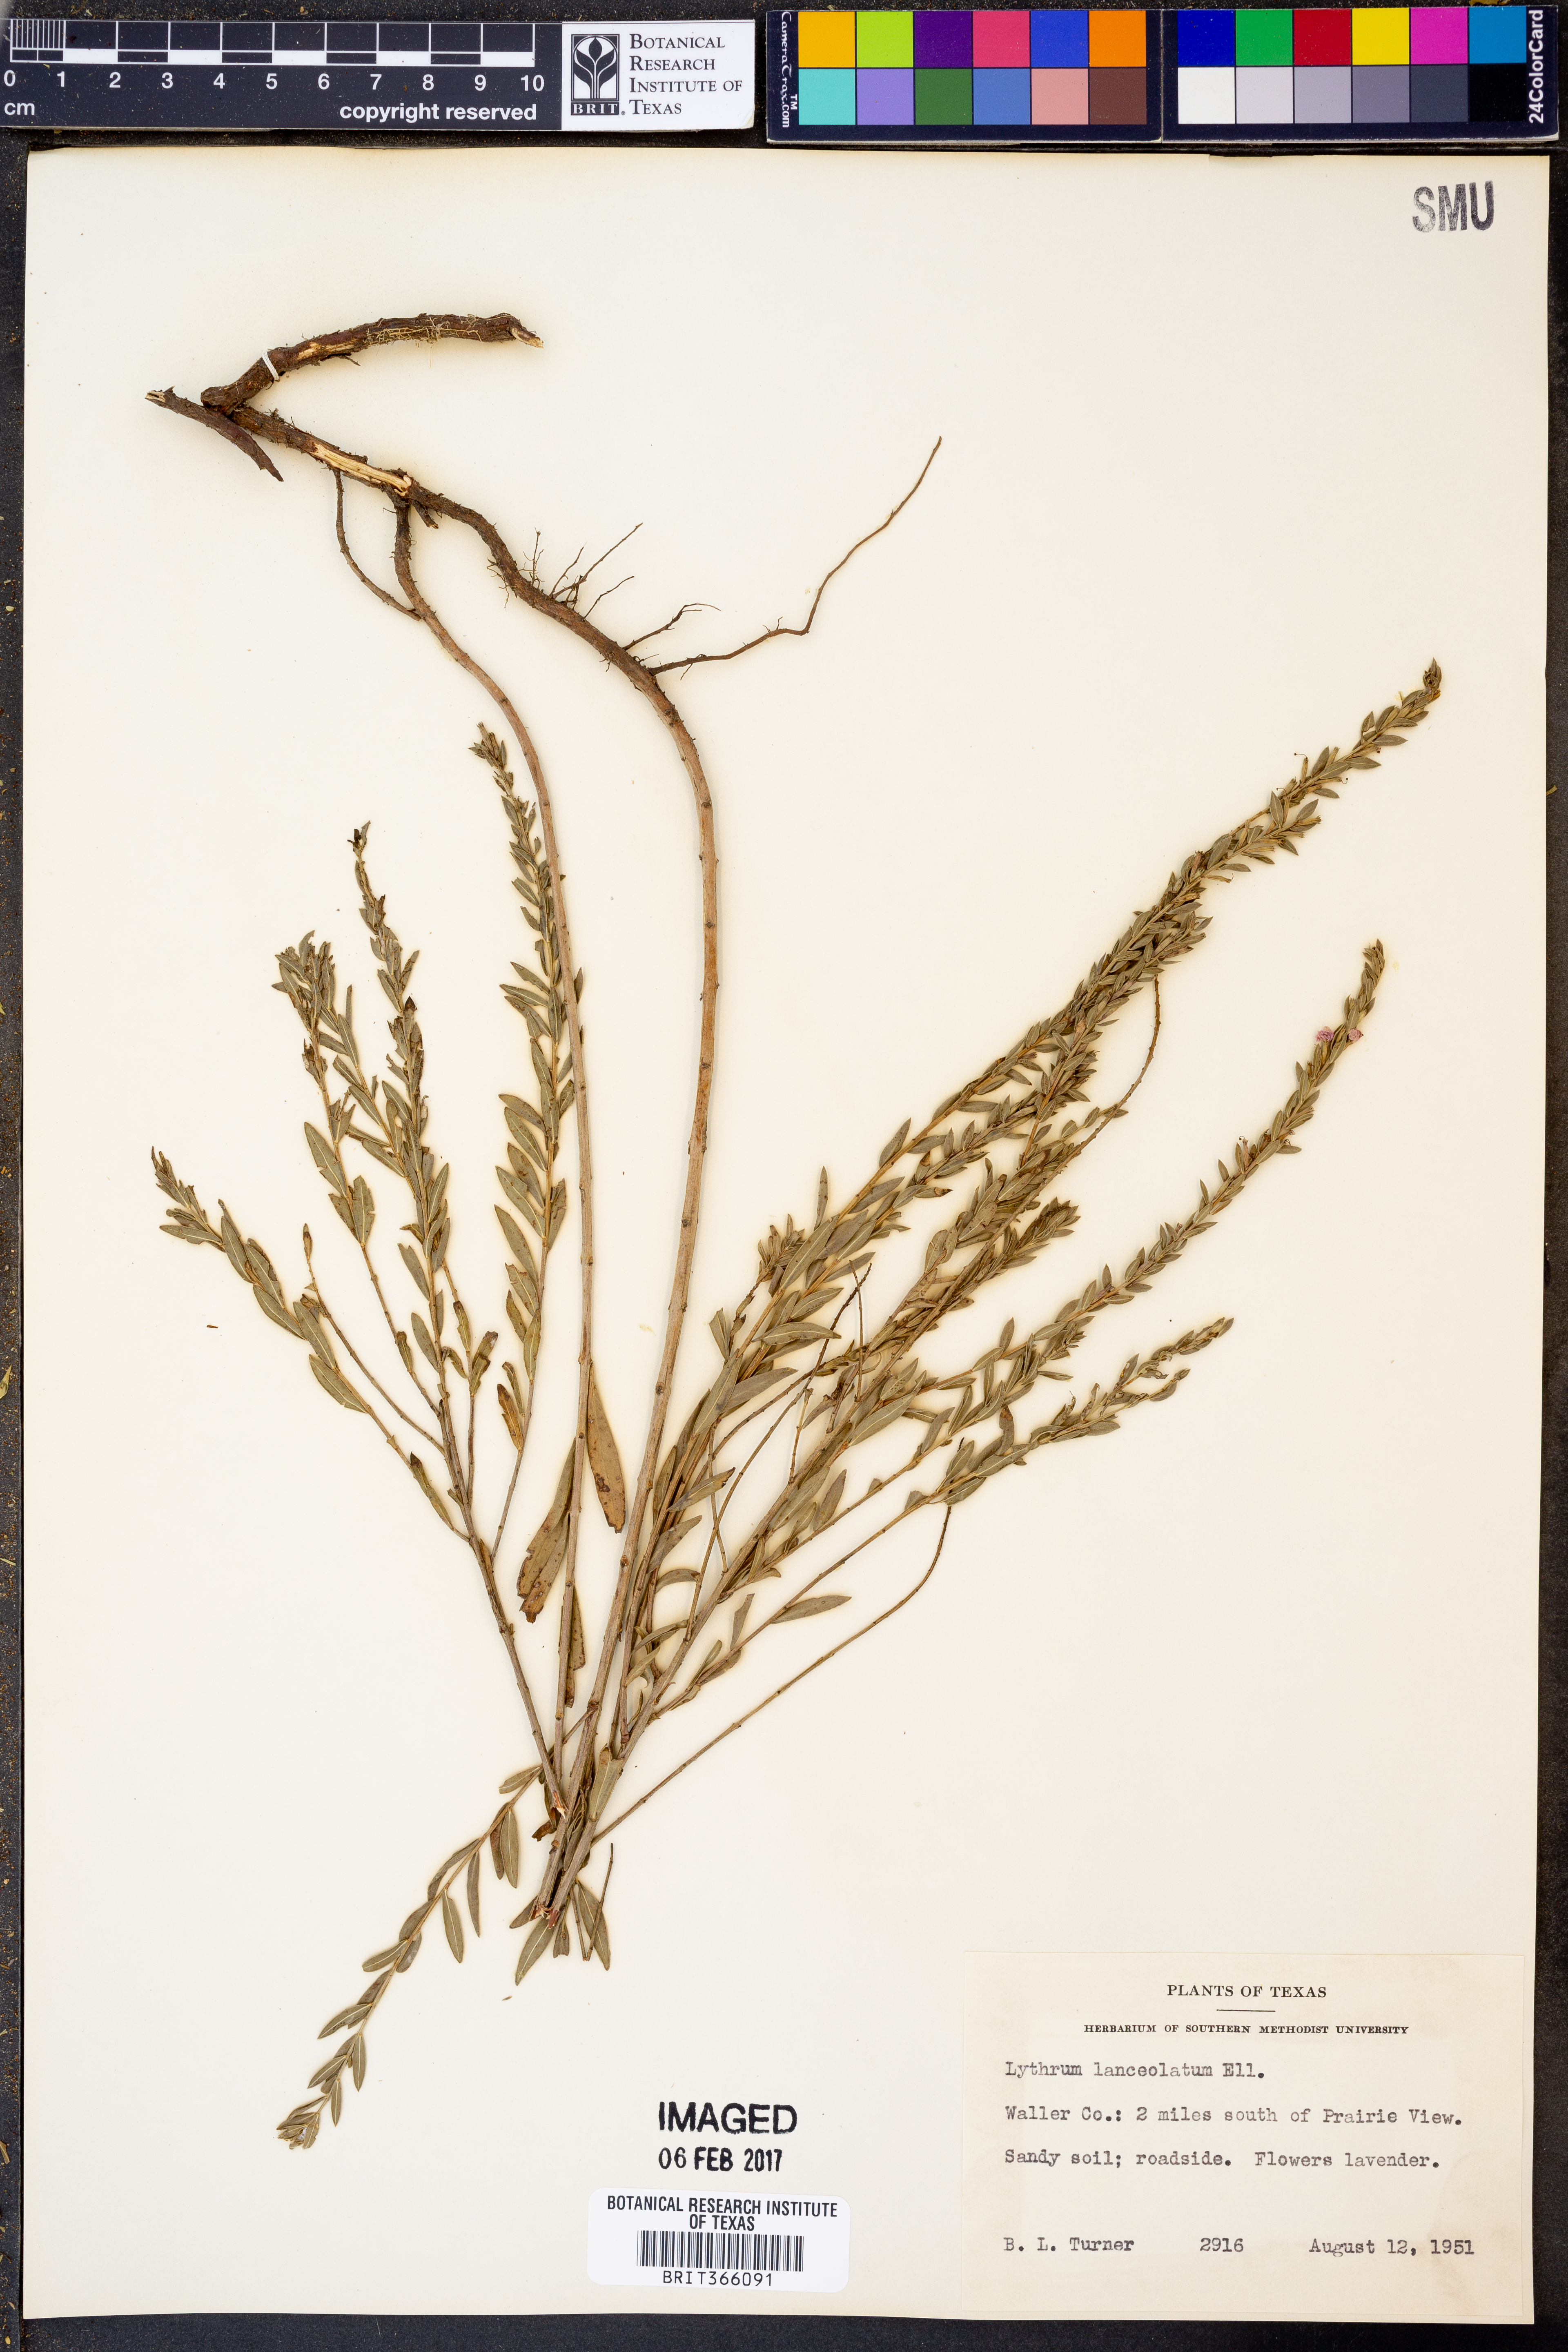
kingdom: Plantae
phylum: Tracheophyta
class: Magnoliopsida
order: Myrtales
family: Lythraceae
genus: Lythrum
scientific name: Lythrum alatum
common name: Winged loosestrife
